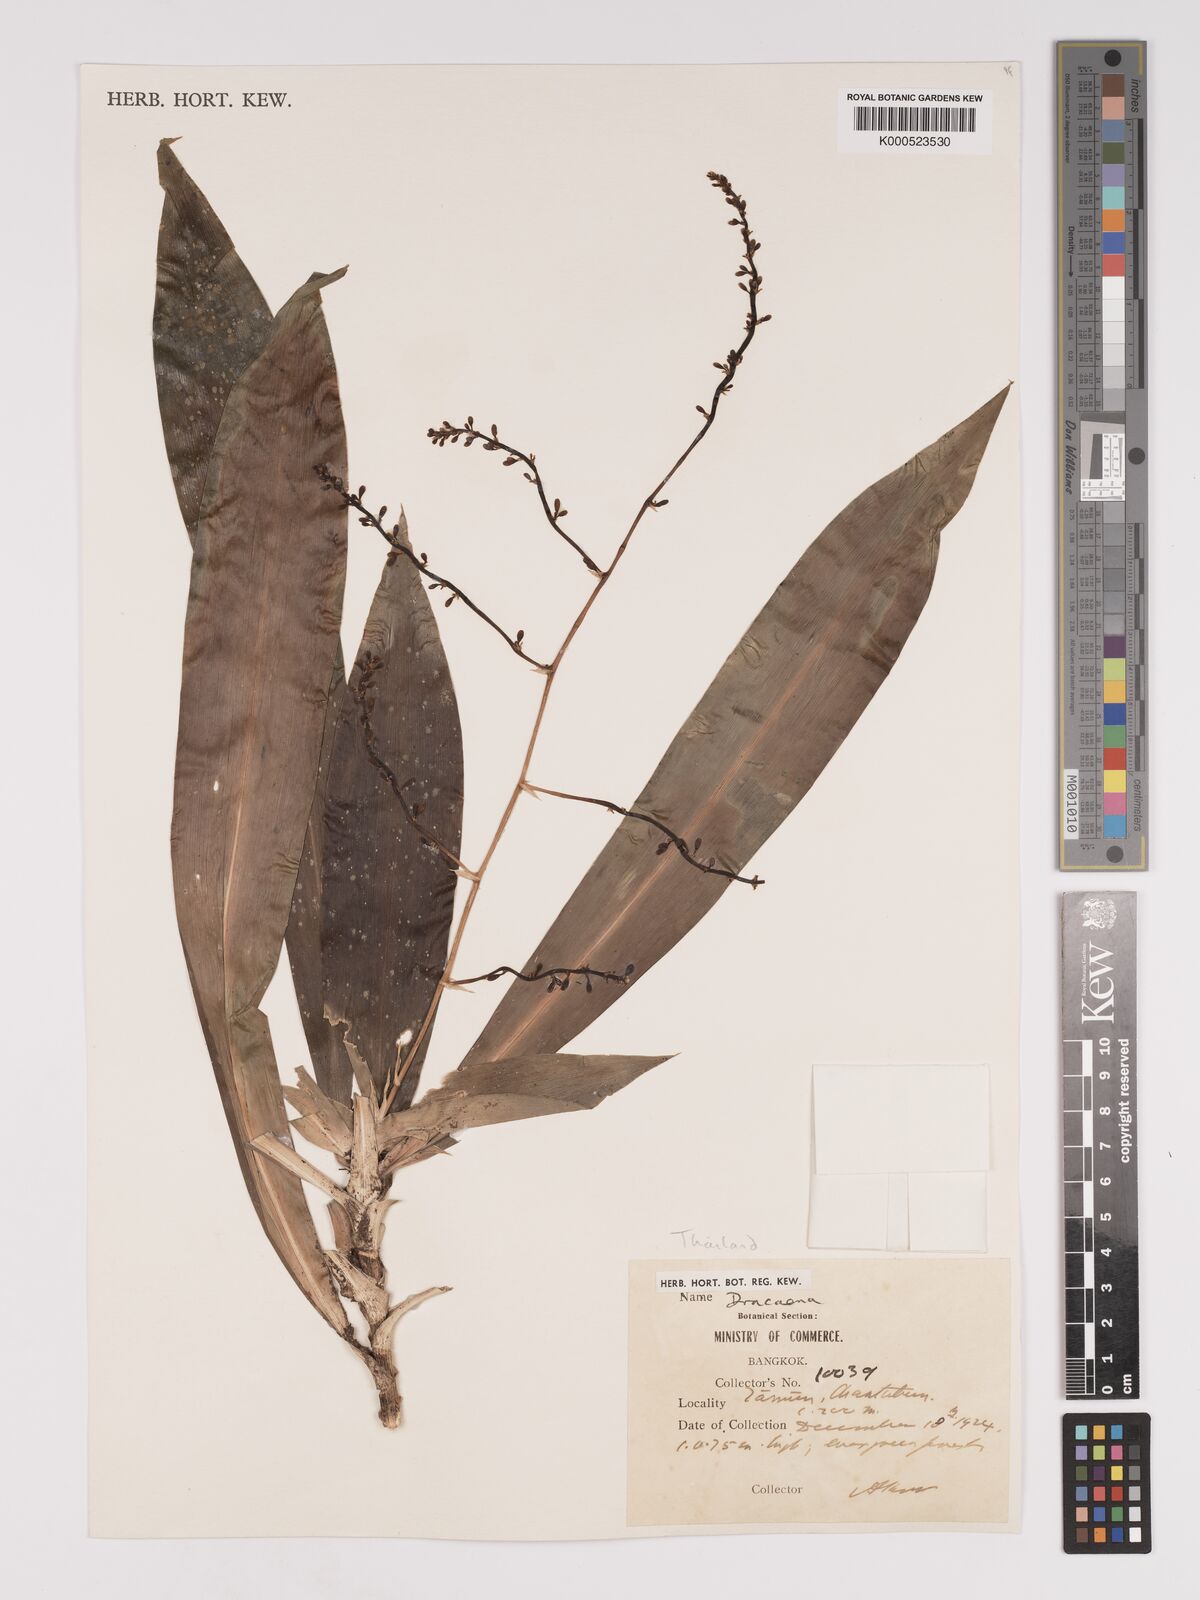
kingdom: Plantae
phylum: Tracheophyta
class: Liliopsida
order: Asparagales
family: Asparagaceae
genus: Dracaena
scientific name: Dracaena
